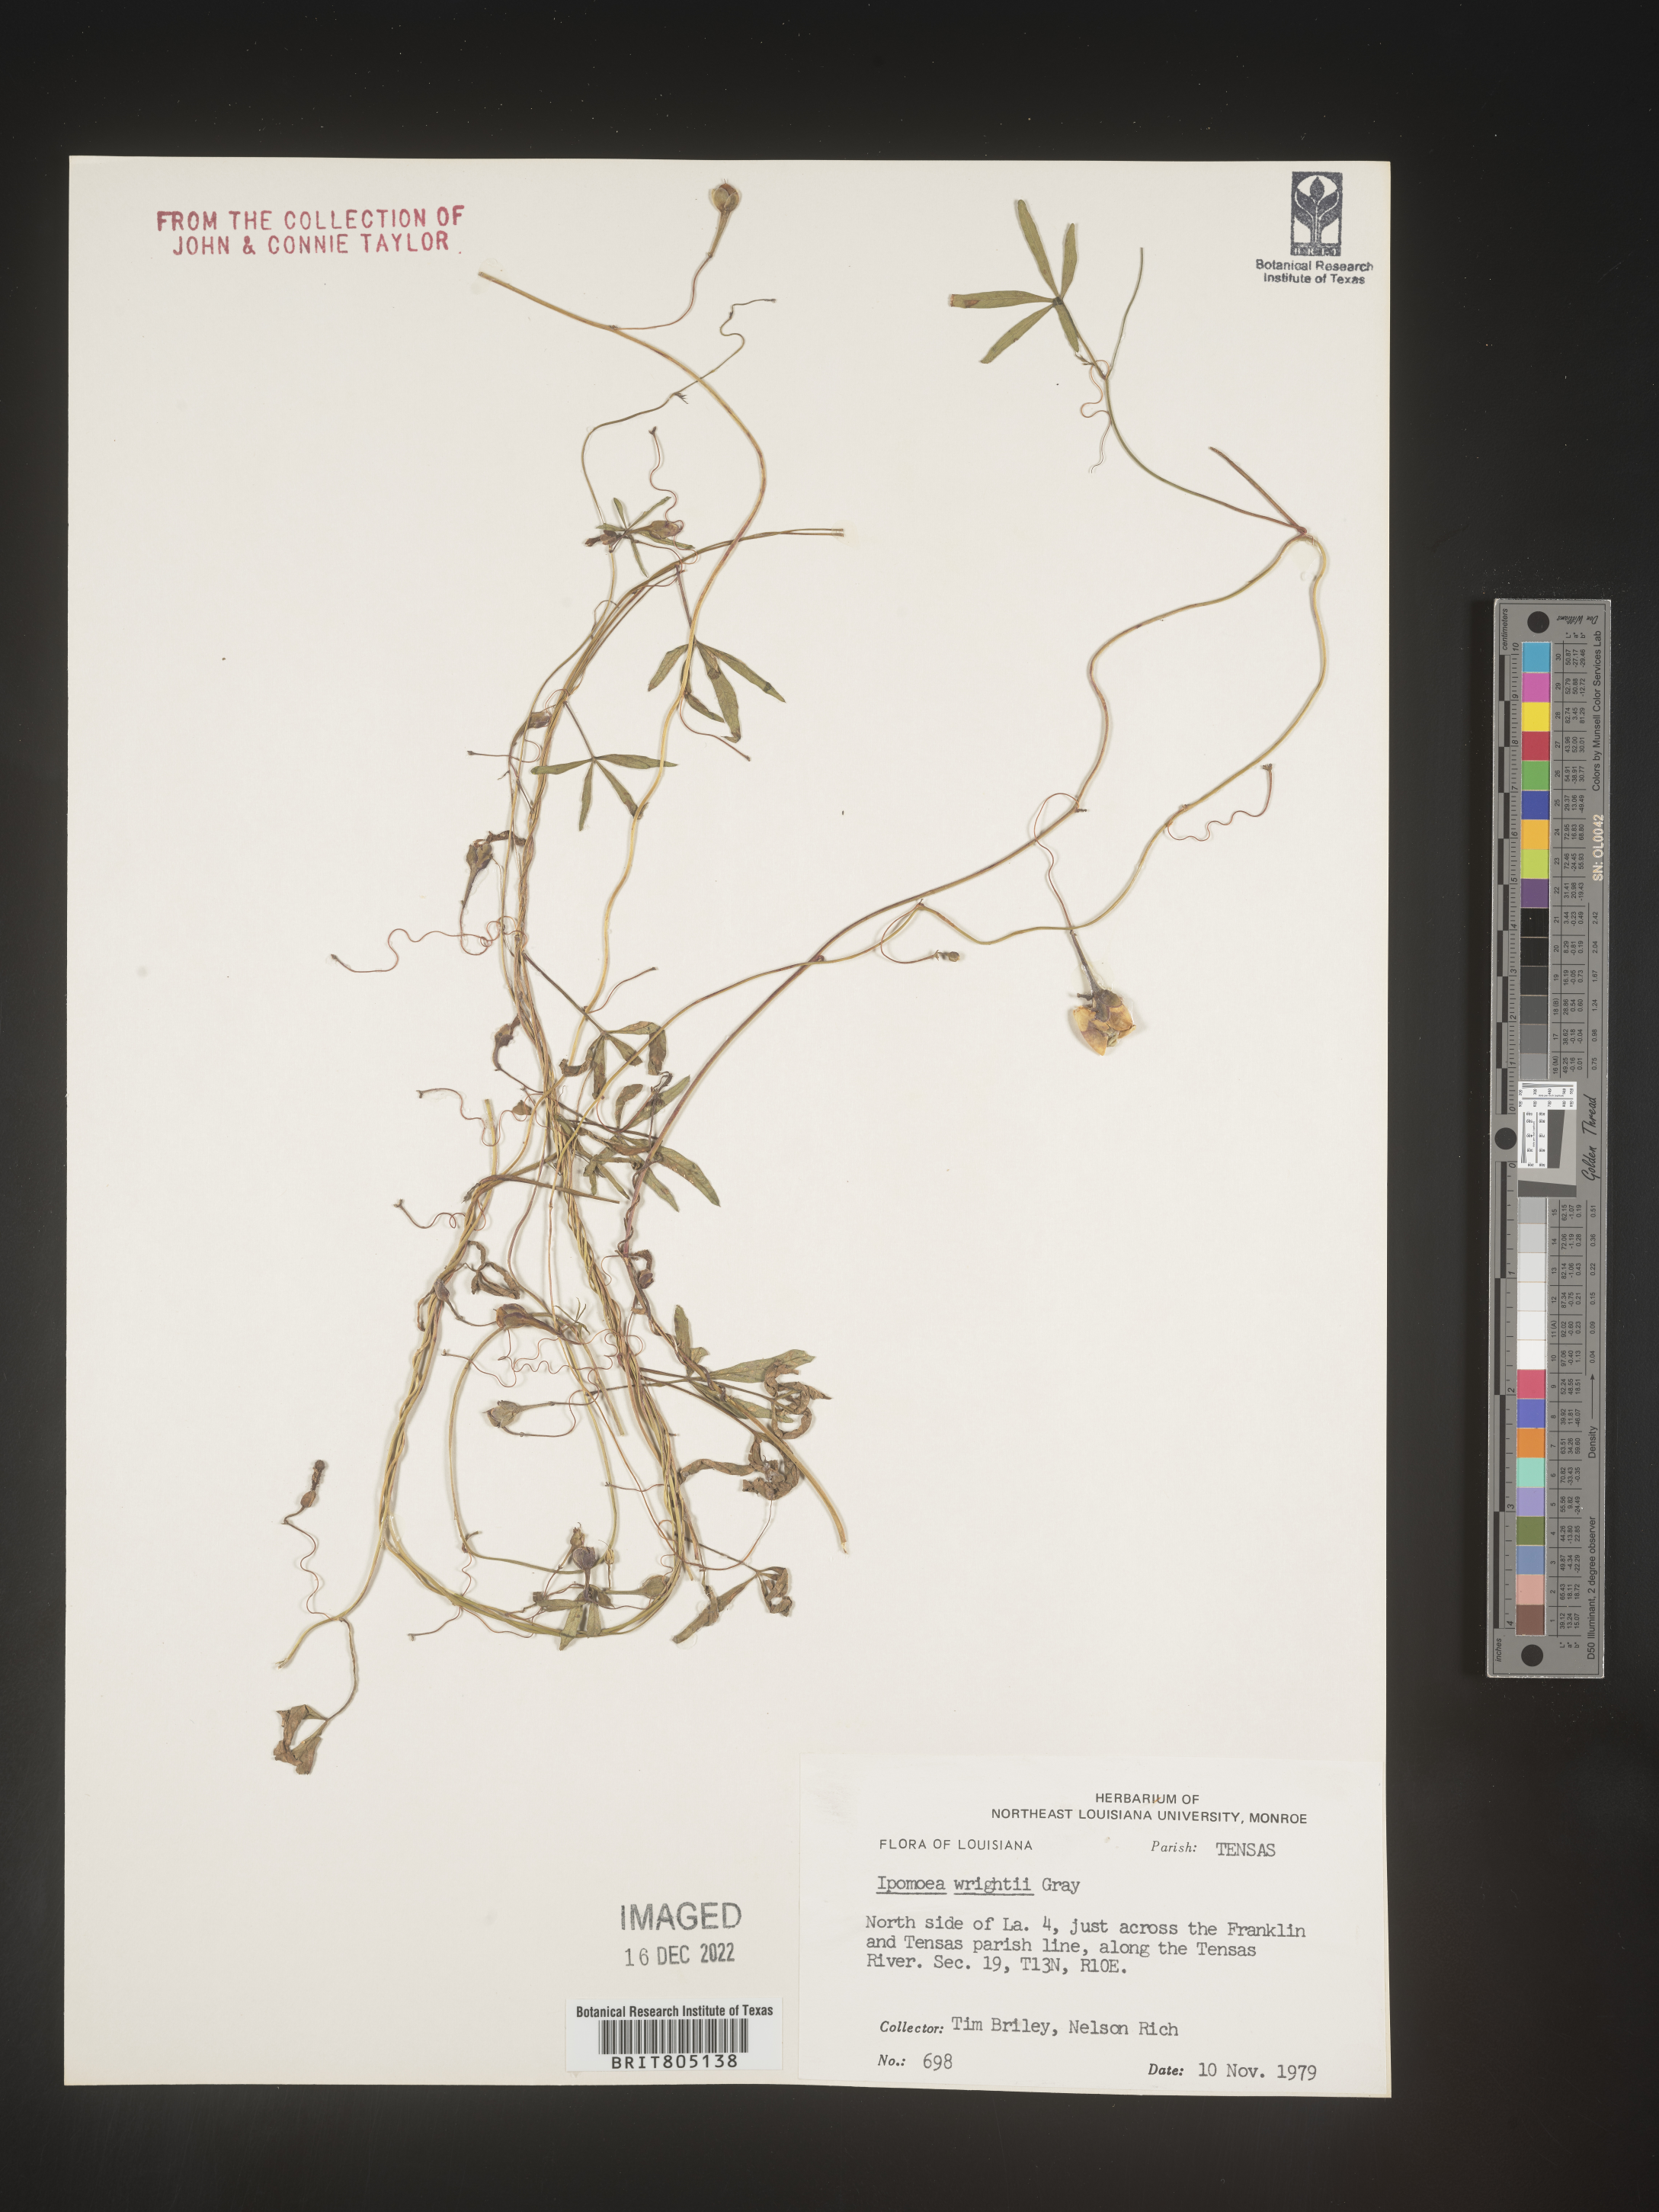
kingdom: Plantae
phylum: Tracheophyta
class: Magnoliopsida
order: Solanales
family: Convolvulaceae
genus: Ipomoea
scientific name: Ipomoea heptaphylla
